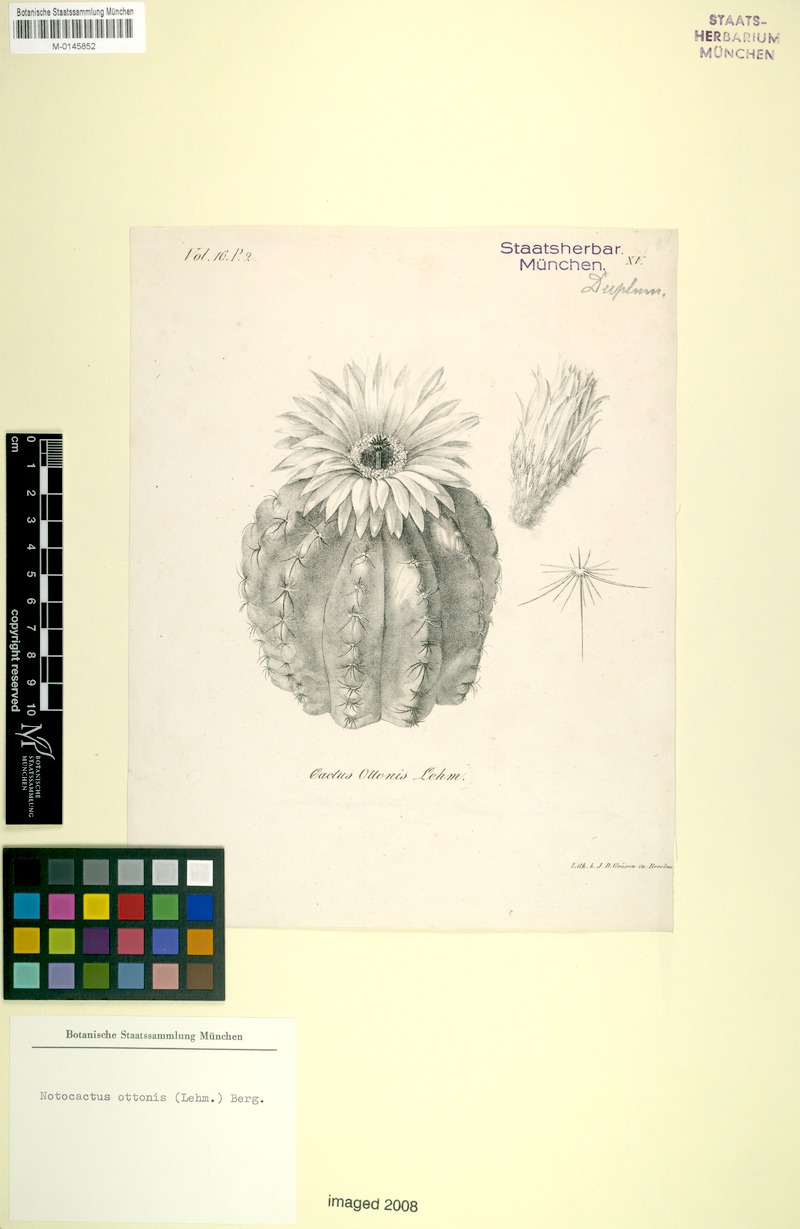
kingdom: Plantae
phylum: Tracheophyta
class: Magnoliopsida
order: Caryophyllales
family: Cactaceae
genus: Parodia
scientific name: Parodia ottonis
